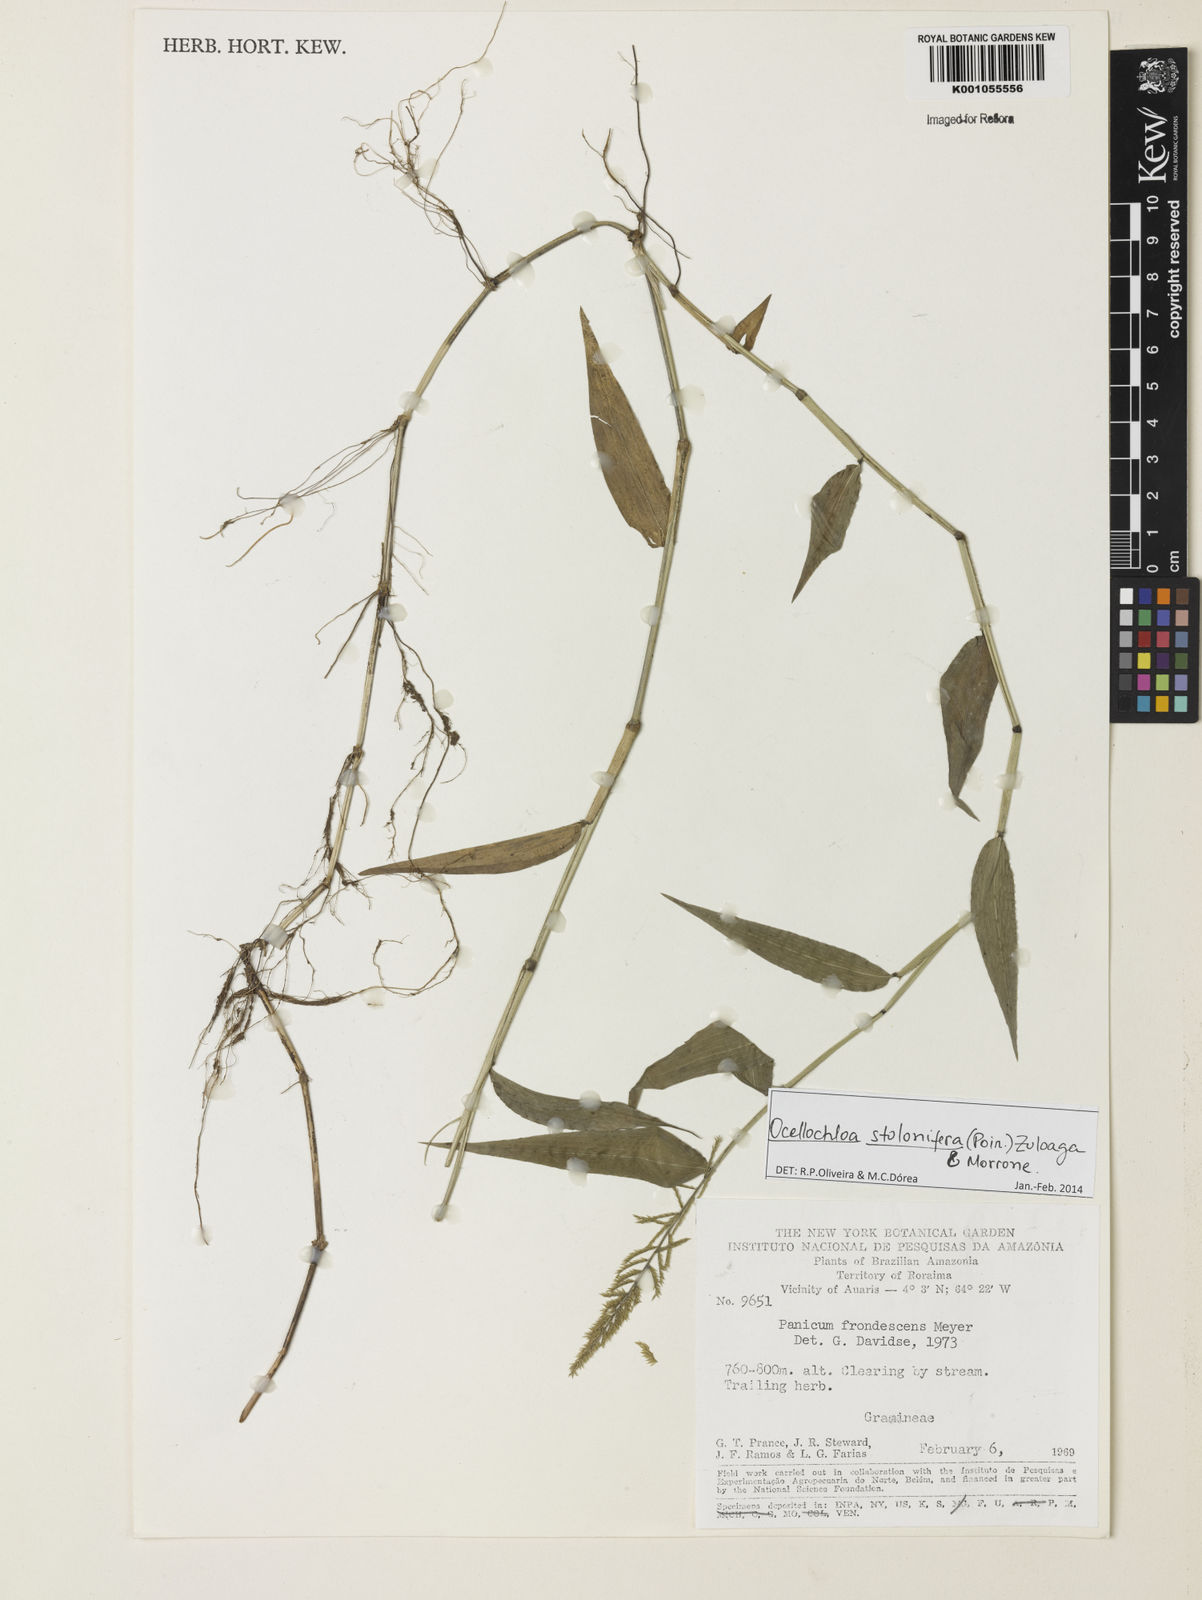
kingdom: Plantae
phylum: Tracheophyta
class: Liliopsida
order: Poales
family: Poaceae
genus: Ocellochloa
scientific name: Ocellochloa stolonifera
